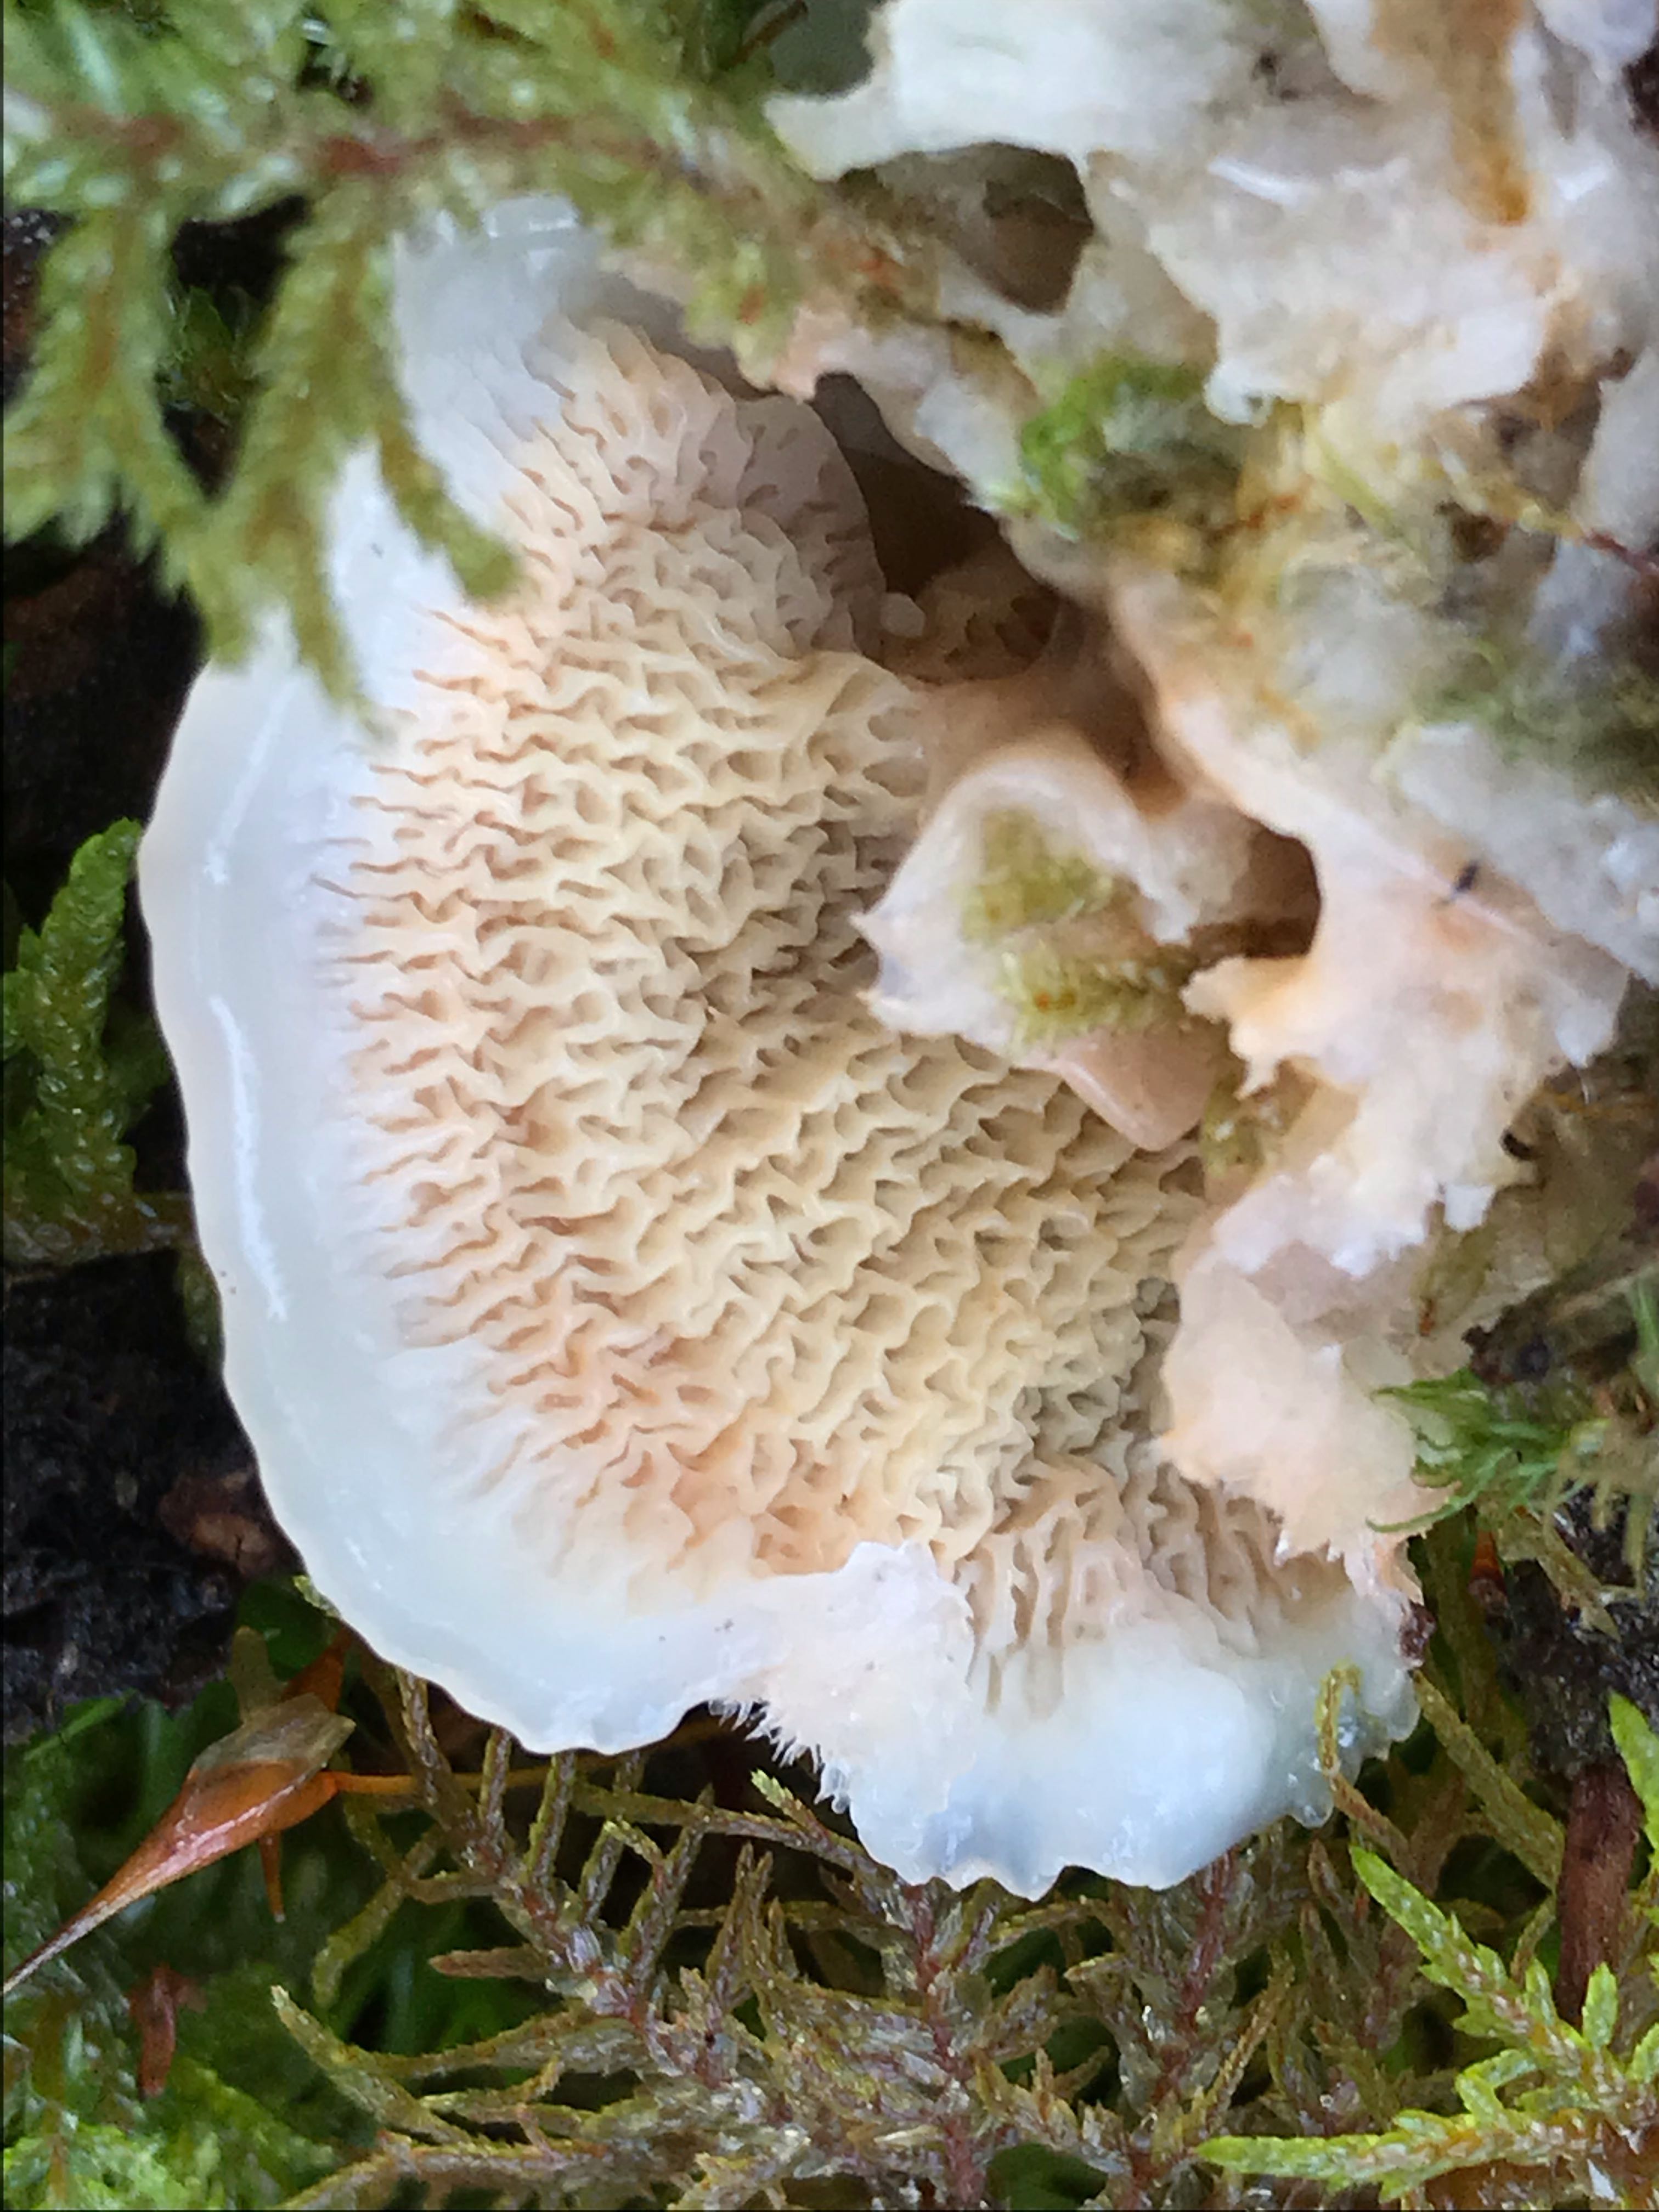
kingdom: Fungi
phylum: Basidiomycota
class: Agaricomycetes
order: Polyporales
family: Meruliaceae
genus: Phlebia
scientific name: Phlebia tremellosa
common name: bævrende åresvamp
